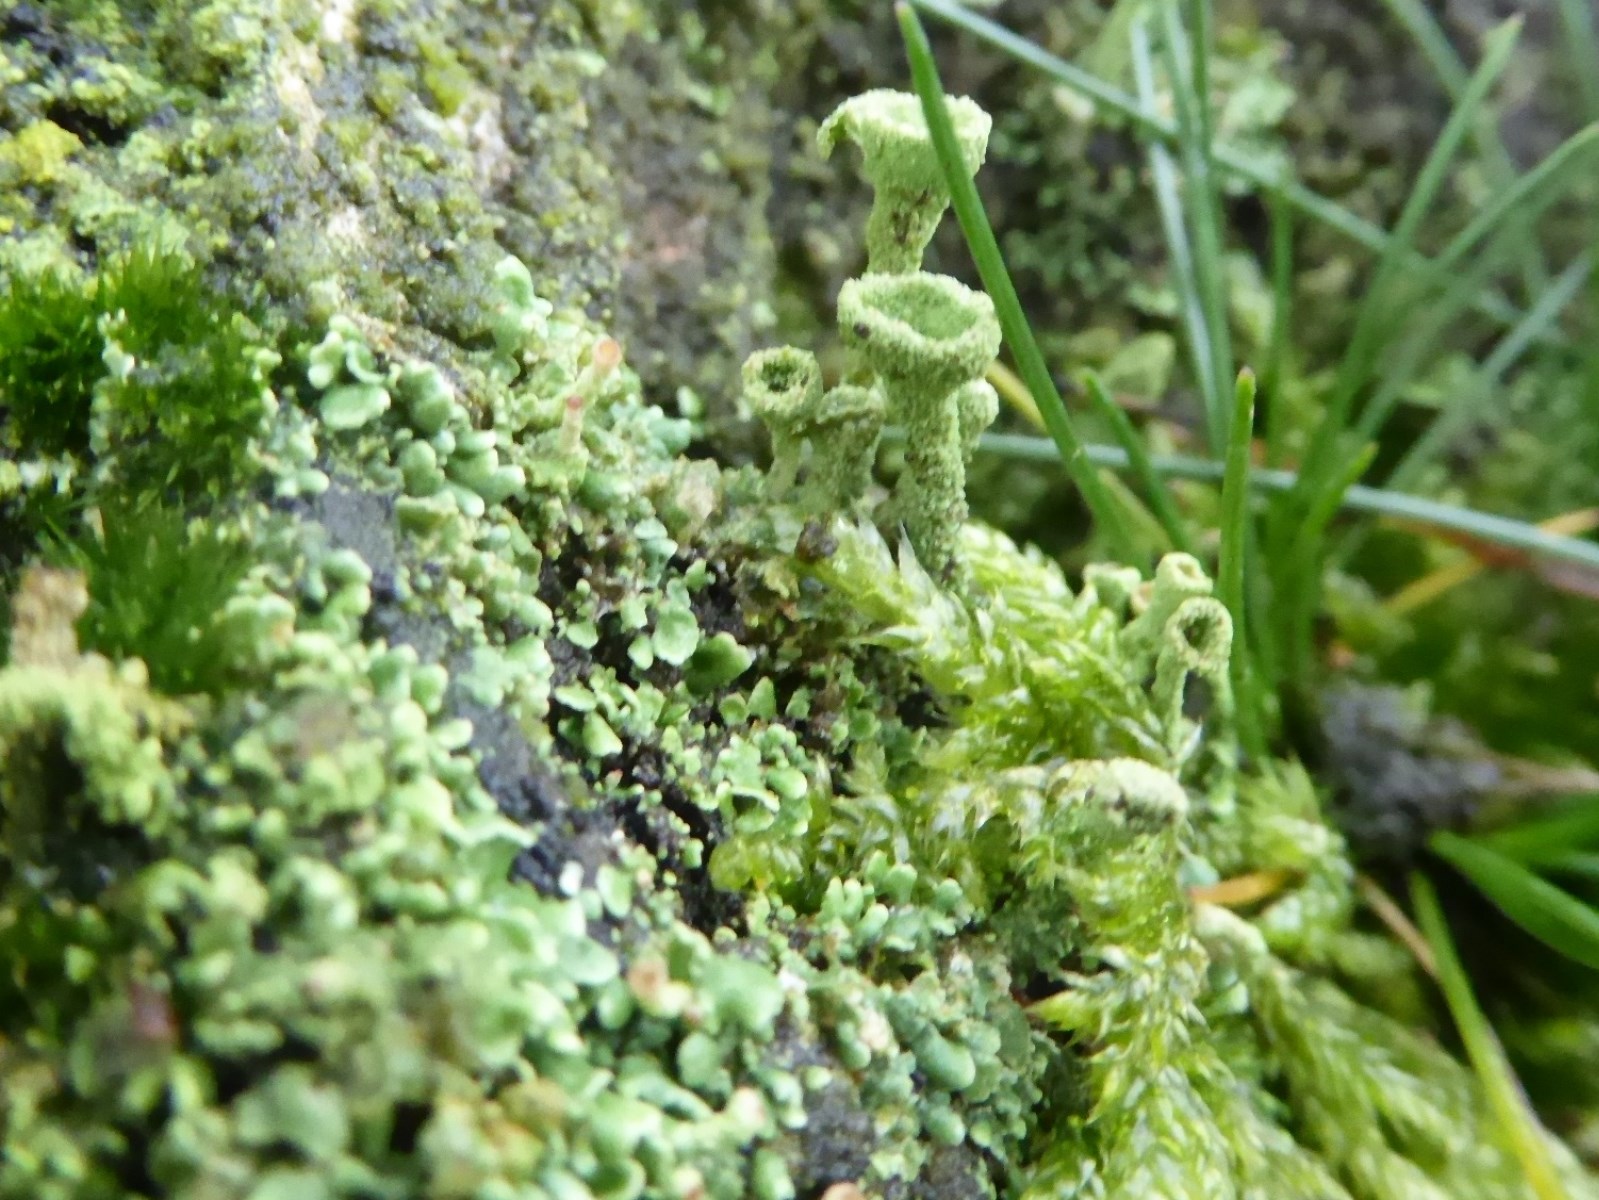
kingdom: Fungi
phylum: Ascomycota
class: Lecanoromycetes
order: Lecanorales
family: Cladoniaceae
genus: Cladonia
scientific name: Cladonia
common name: brungrøn bægerlav
